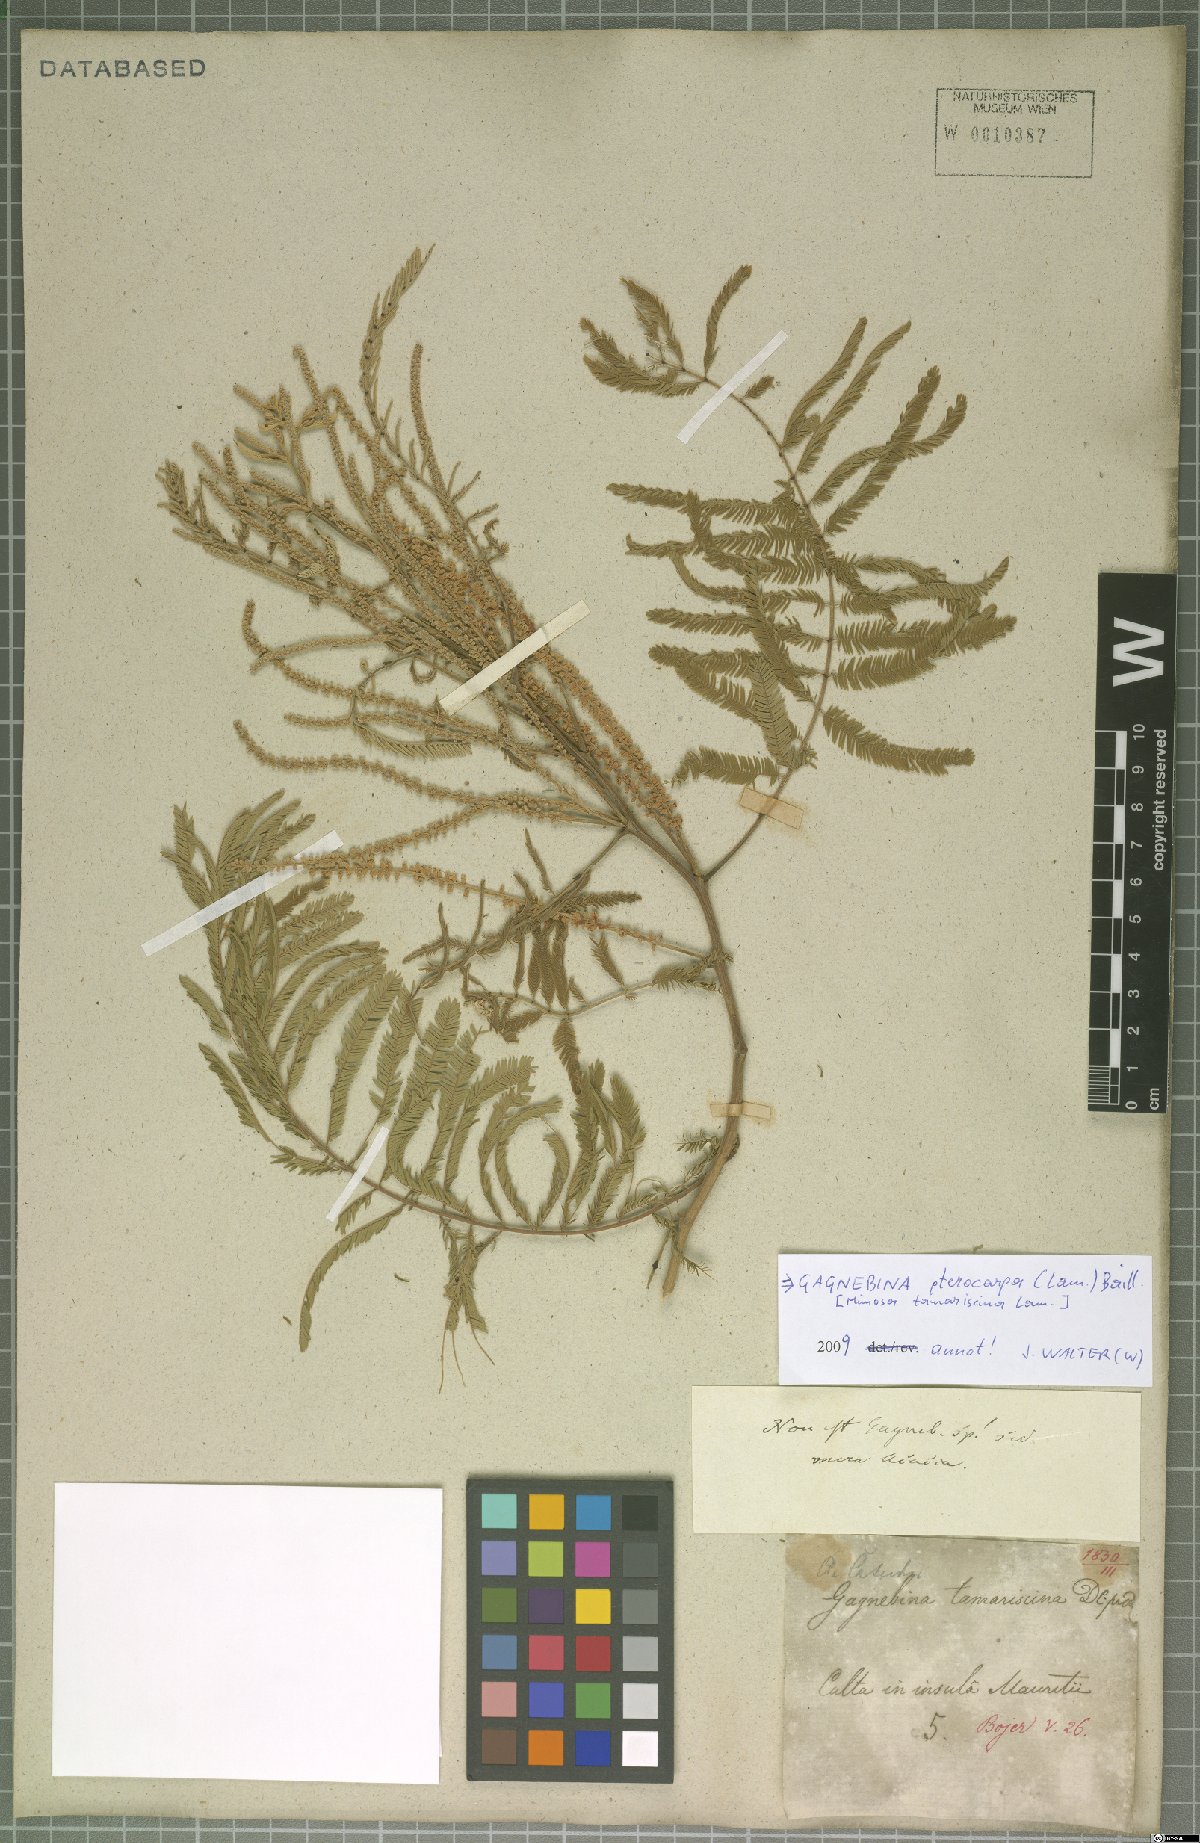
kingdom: Plantae
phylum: Tracheophyta
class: Magnoliopsida
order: Fabales
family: Fabaceae
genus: Gagnebina
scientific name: Gagnebina pterocarpa
